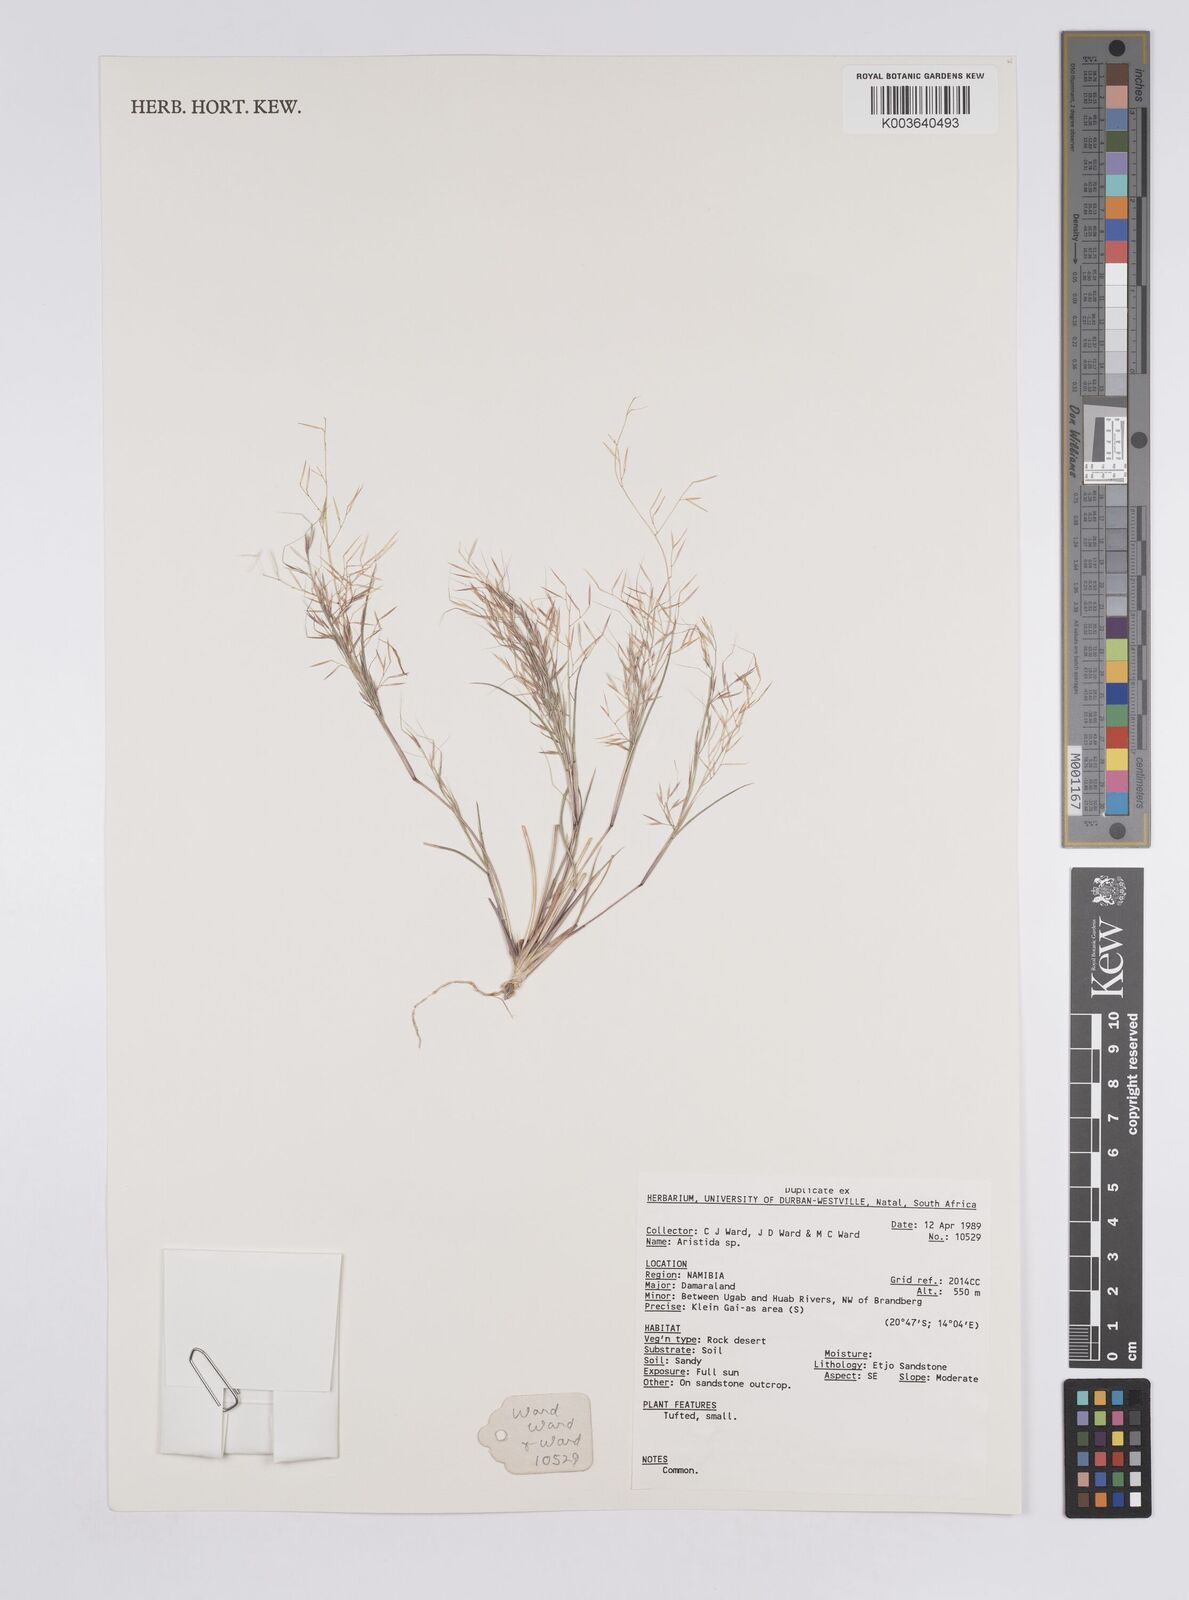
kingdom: Plantae
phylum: Tracheophyta
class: Liliopsida
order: Poales
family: Poaceae
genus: Aristida
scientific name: Aristida
